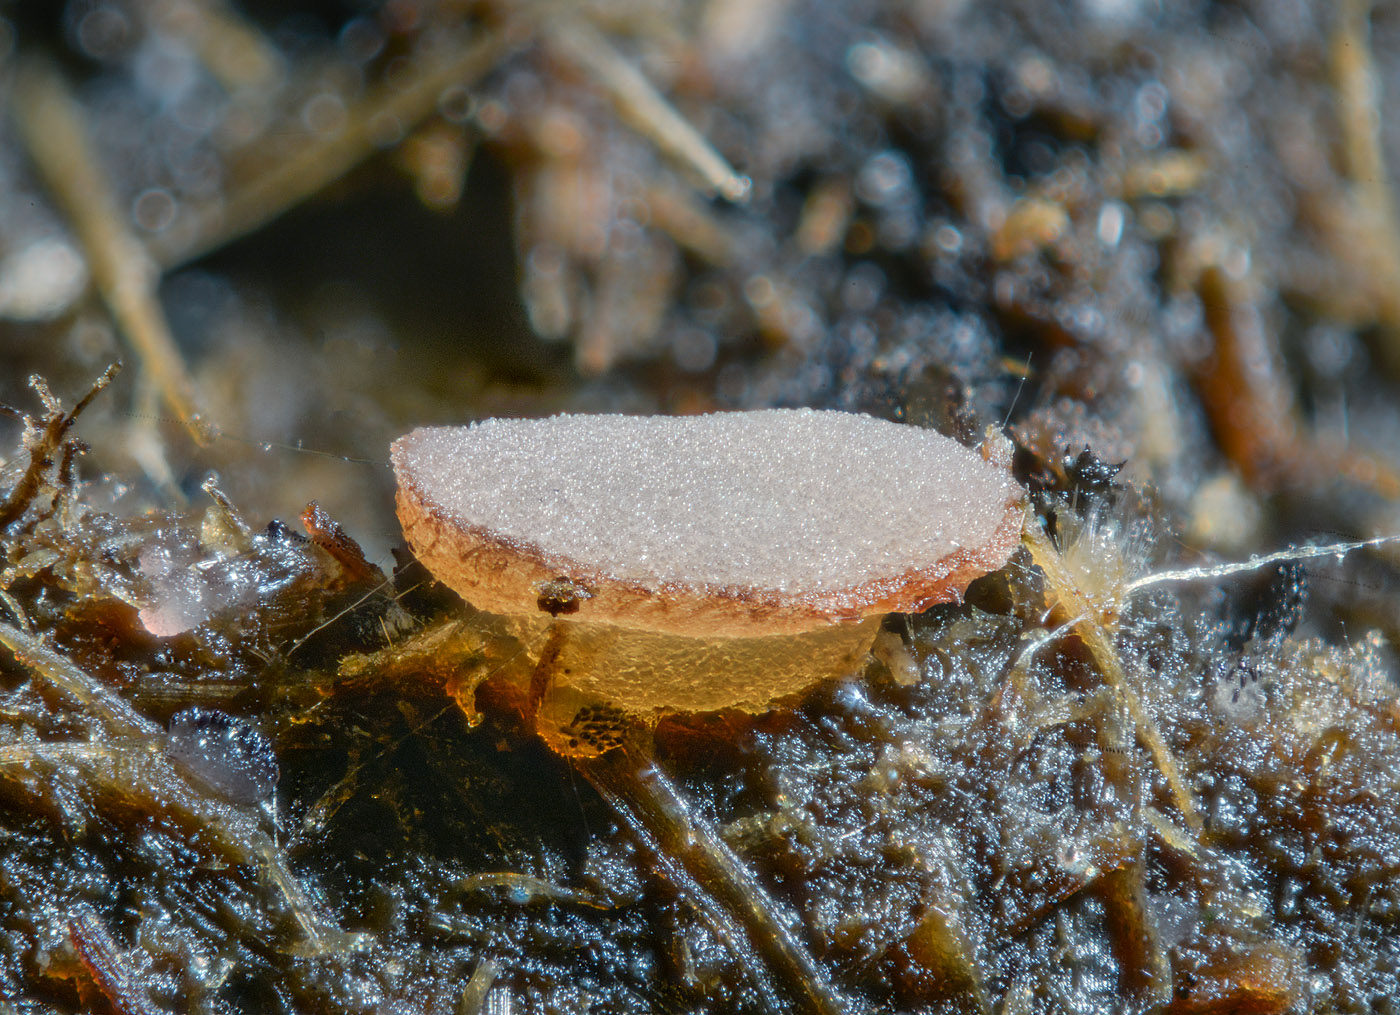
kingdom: Fungi
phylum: Ascomycota
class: Pezizomycetes
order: Pezizales
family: Pseudombrophilaceae
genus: Pseudombrophila
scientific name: Pseudombrophila theioleuca
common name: almindelig randbæger
